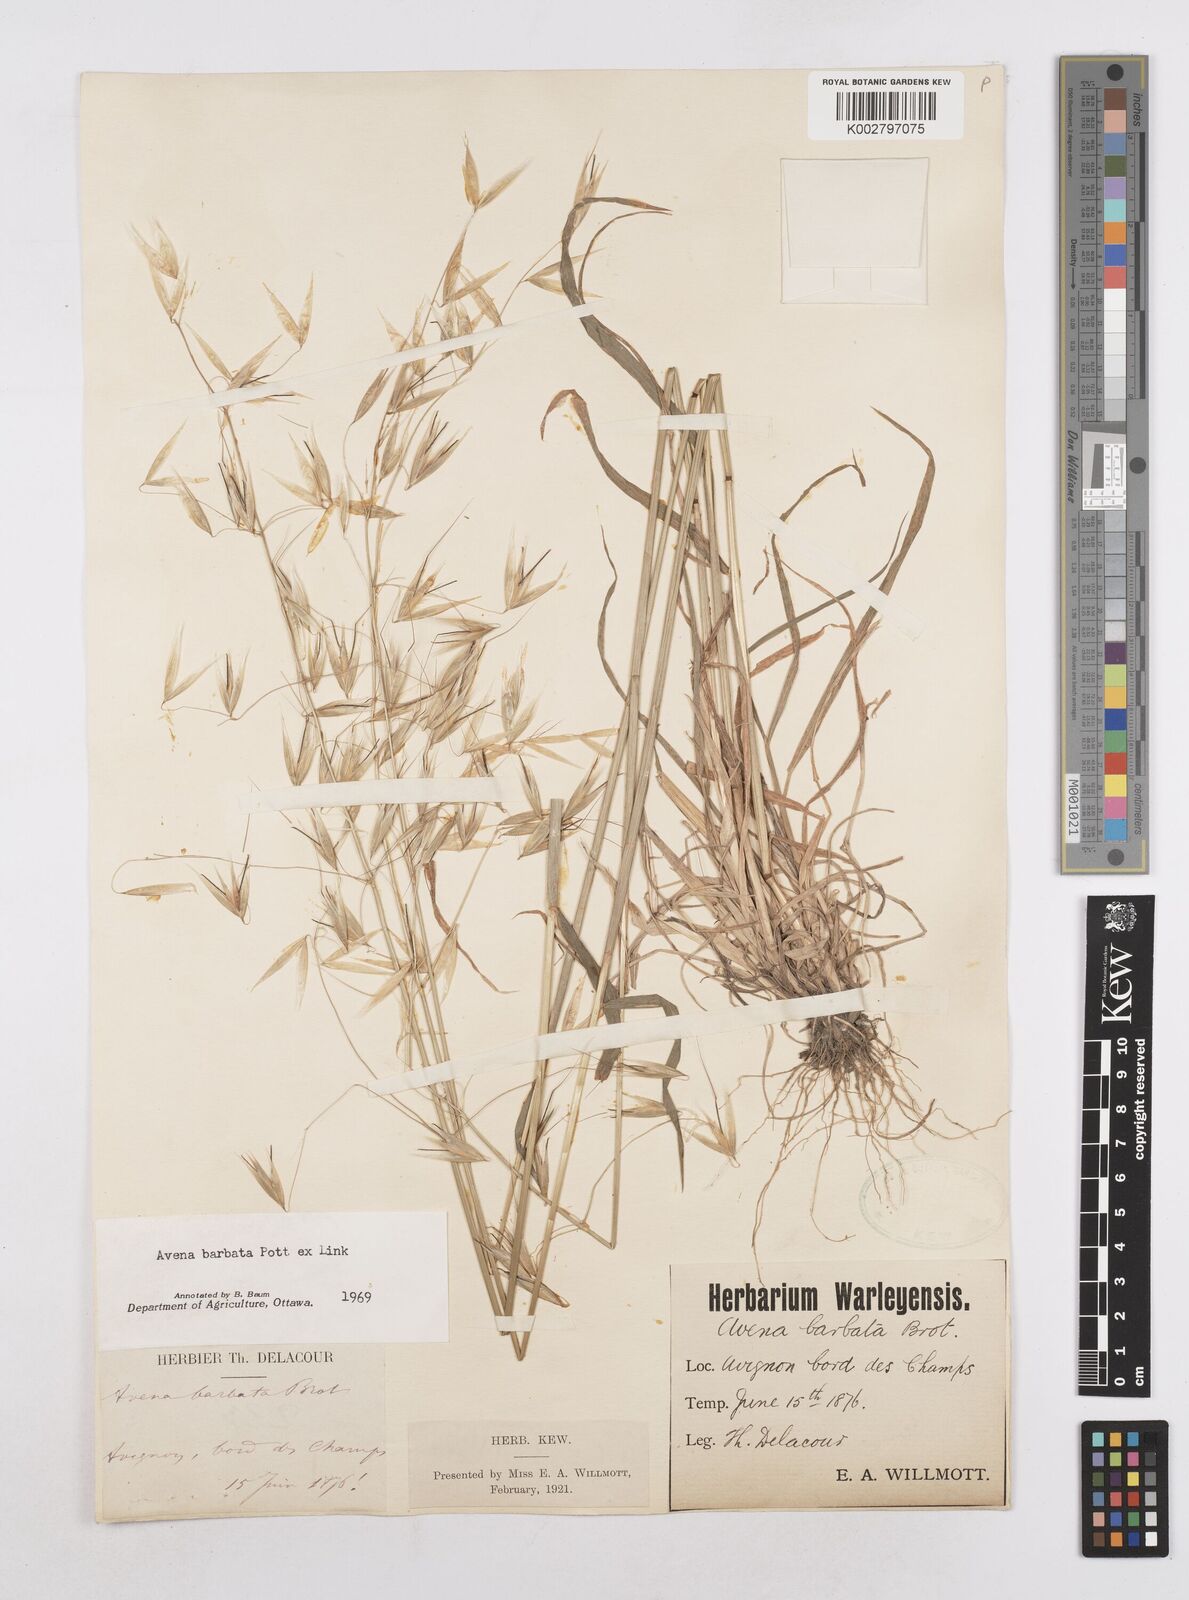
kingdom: Plantae
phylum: Tracheophyta
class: Liliopsida
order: Poales
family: Poaceae
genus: Avena
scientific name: Avena
